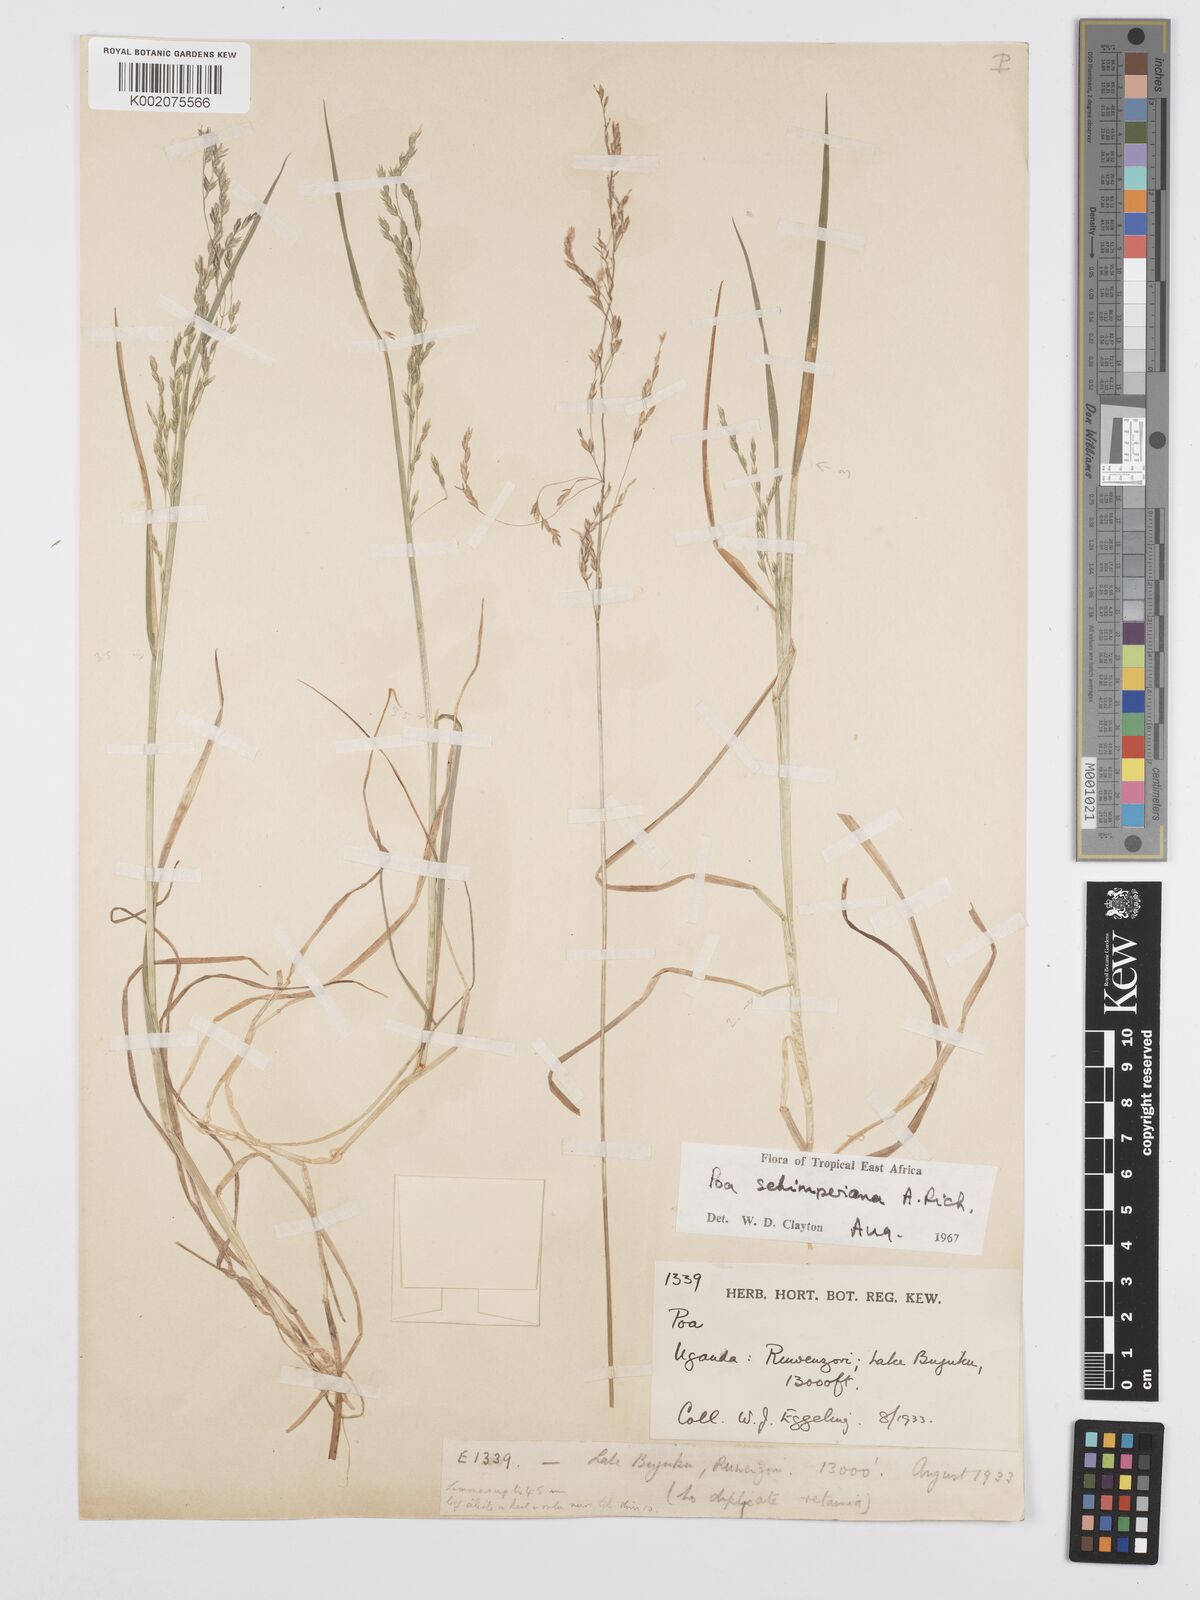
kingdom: Plantae
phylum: Tracheophyta
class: Liliopsida
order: Poales
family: Poaceae
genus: Poa
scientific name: Poa schimperiana
